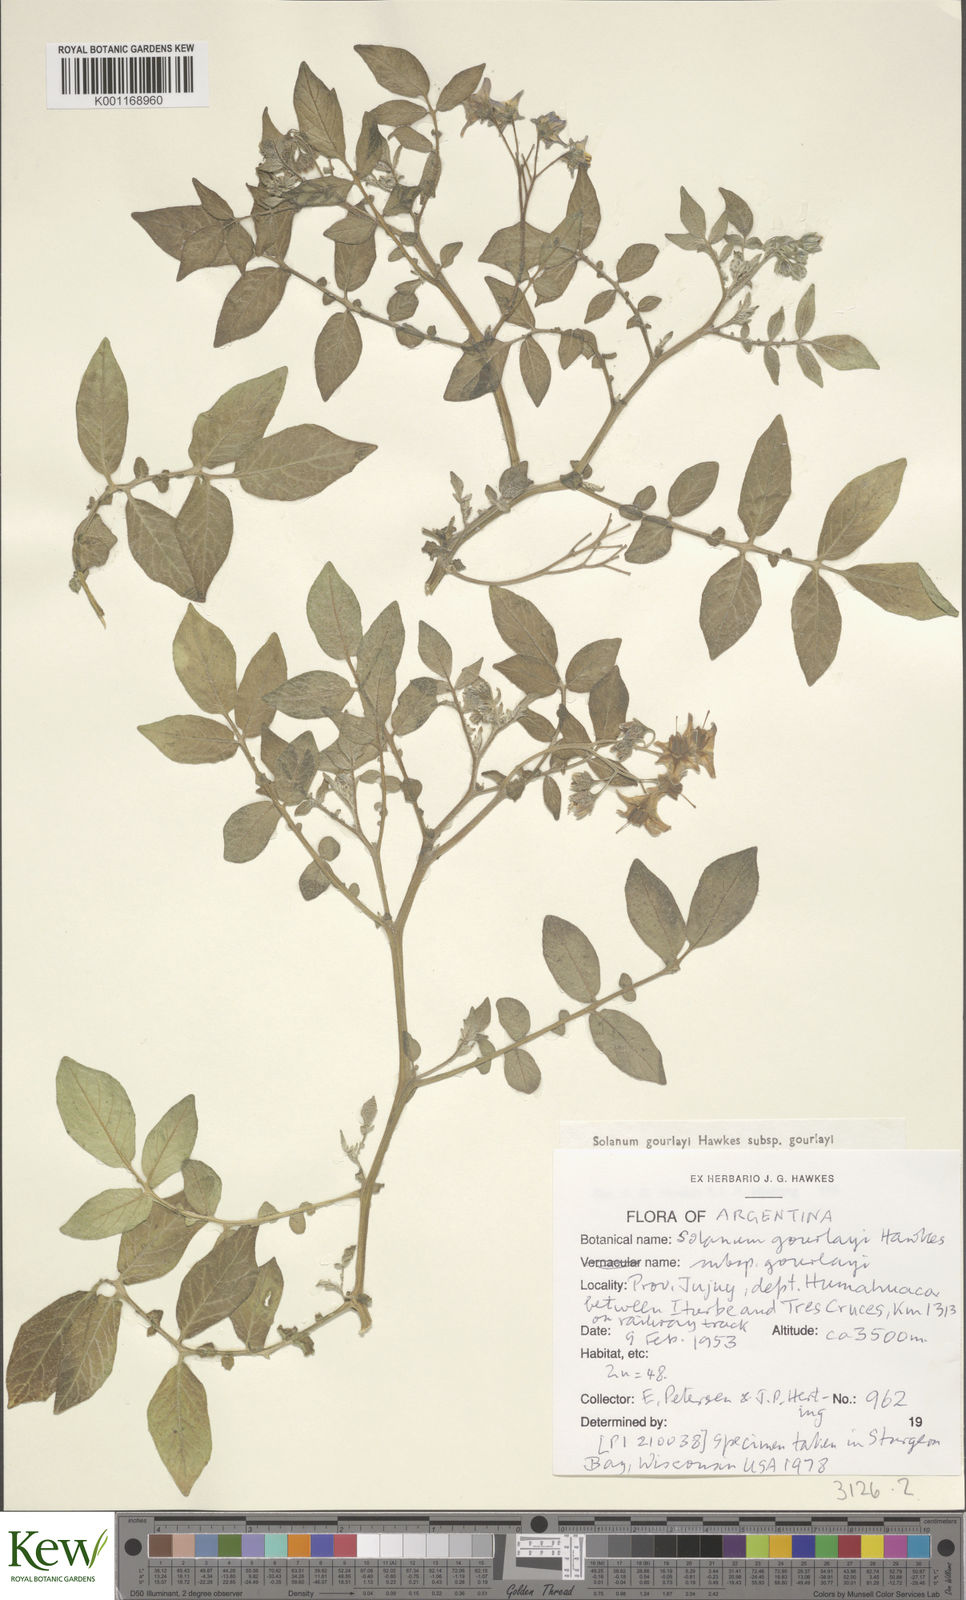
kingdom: Plantae
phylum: Tracheophyta
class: Magnoliopsida
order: Solanales
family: Solanaceae
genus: Solanum
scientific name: Solanum brevicaule
